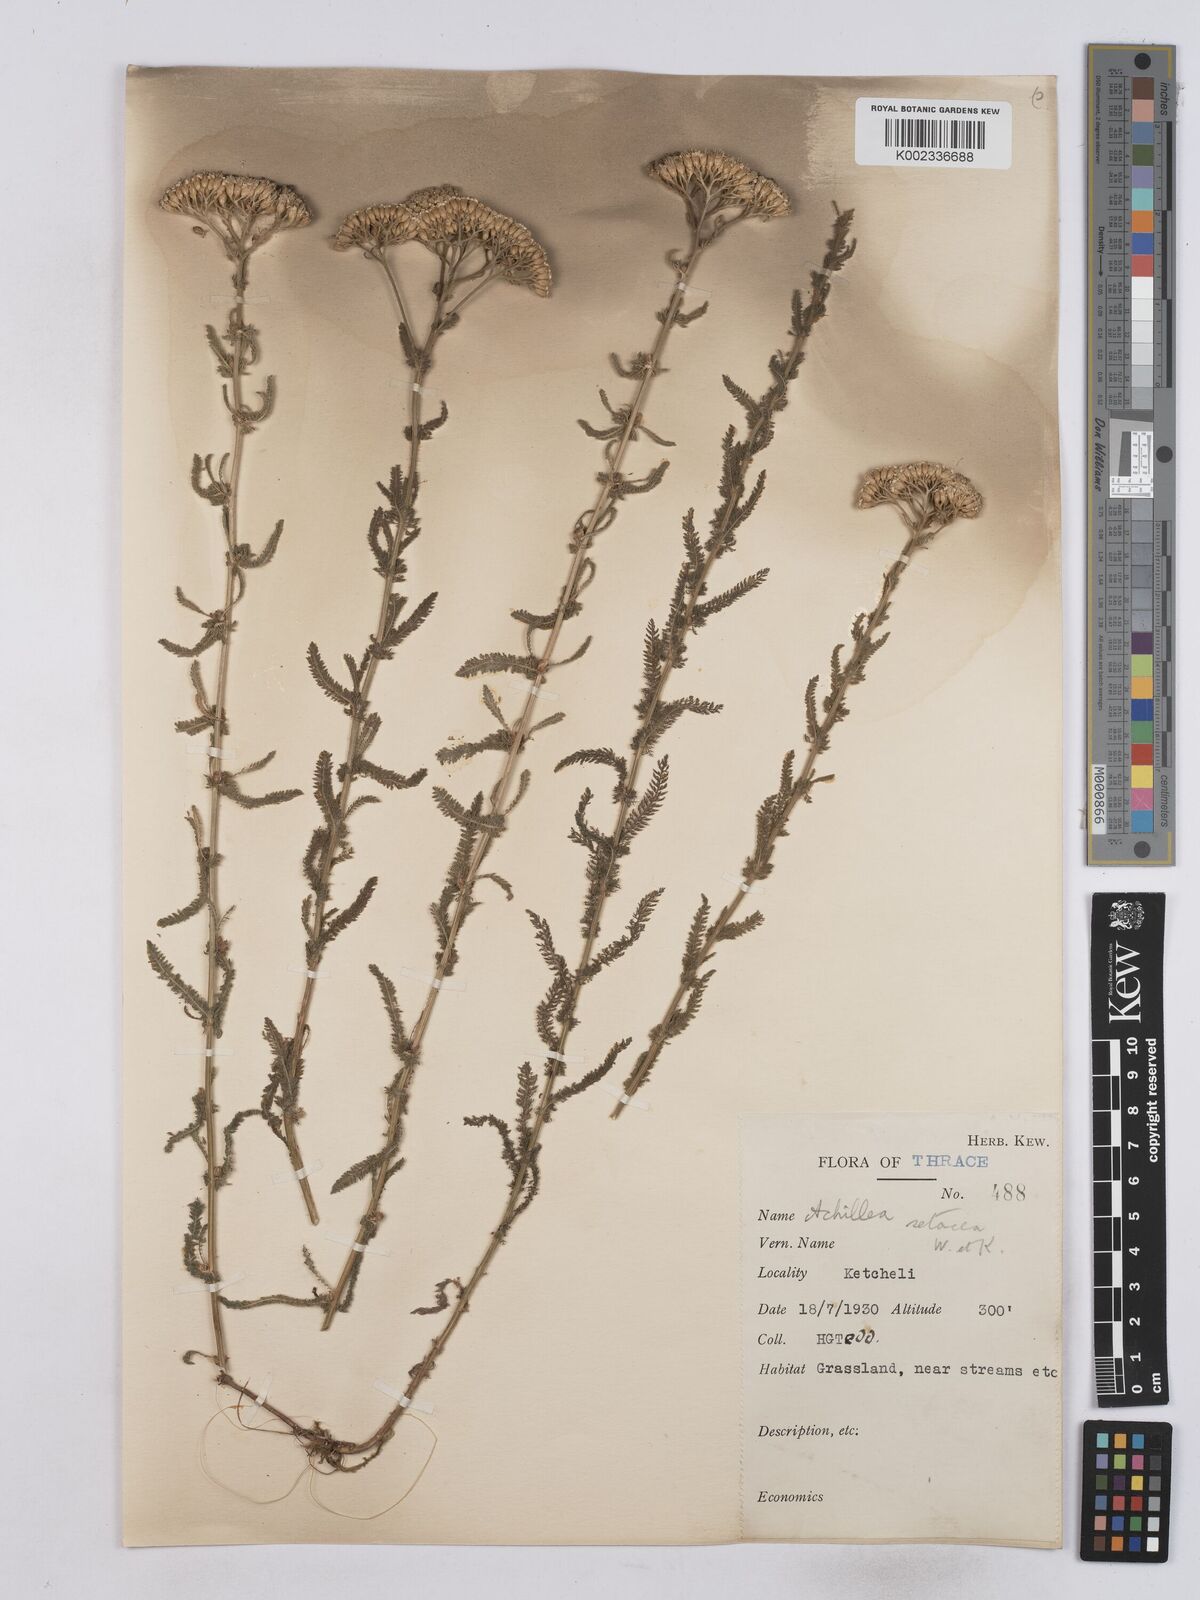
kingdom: Plantae
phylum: Tracheophyta
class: Magnoliopsida
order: Asterales
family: Asteraceae
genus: Achillea
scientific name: Achillea setacea
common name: Bristly yarrow
